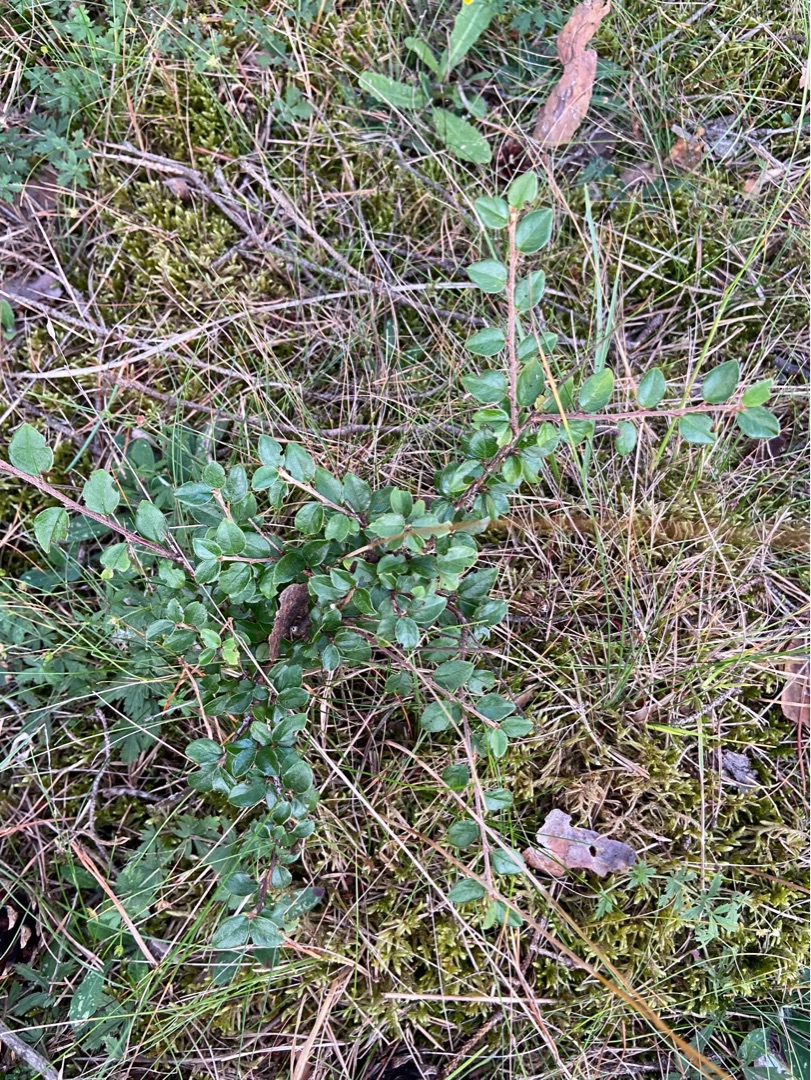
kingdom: Plantae
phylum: Tracheophyta
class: Magnoliopsida
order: Rosales
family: Rosaceae
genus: Cotoneaster
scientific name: Cotoneaster
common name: Dværgmispelslægten
